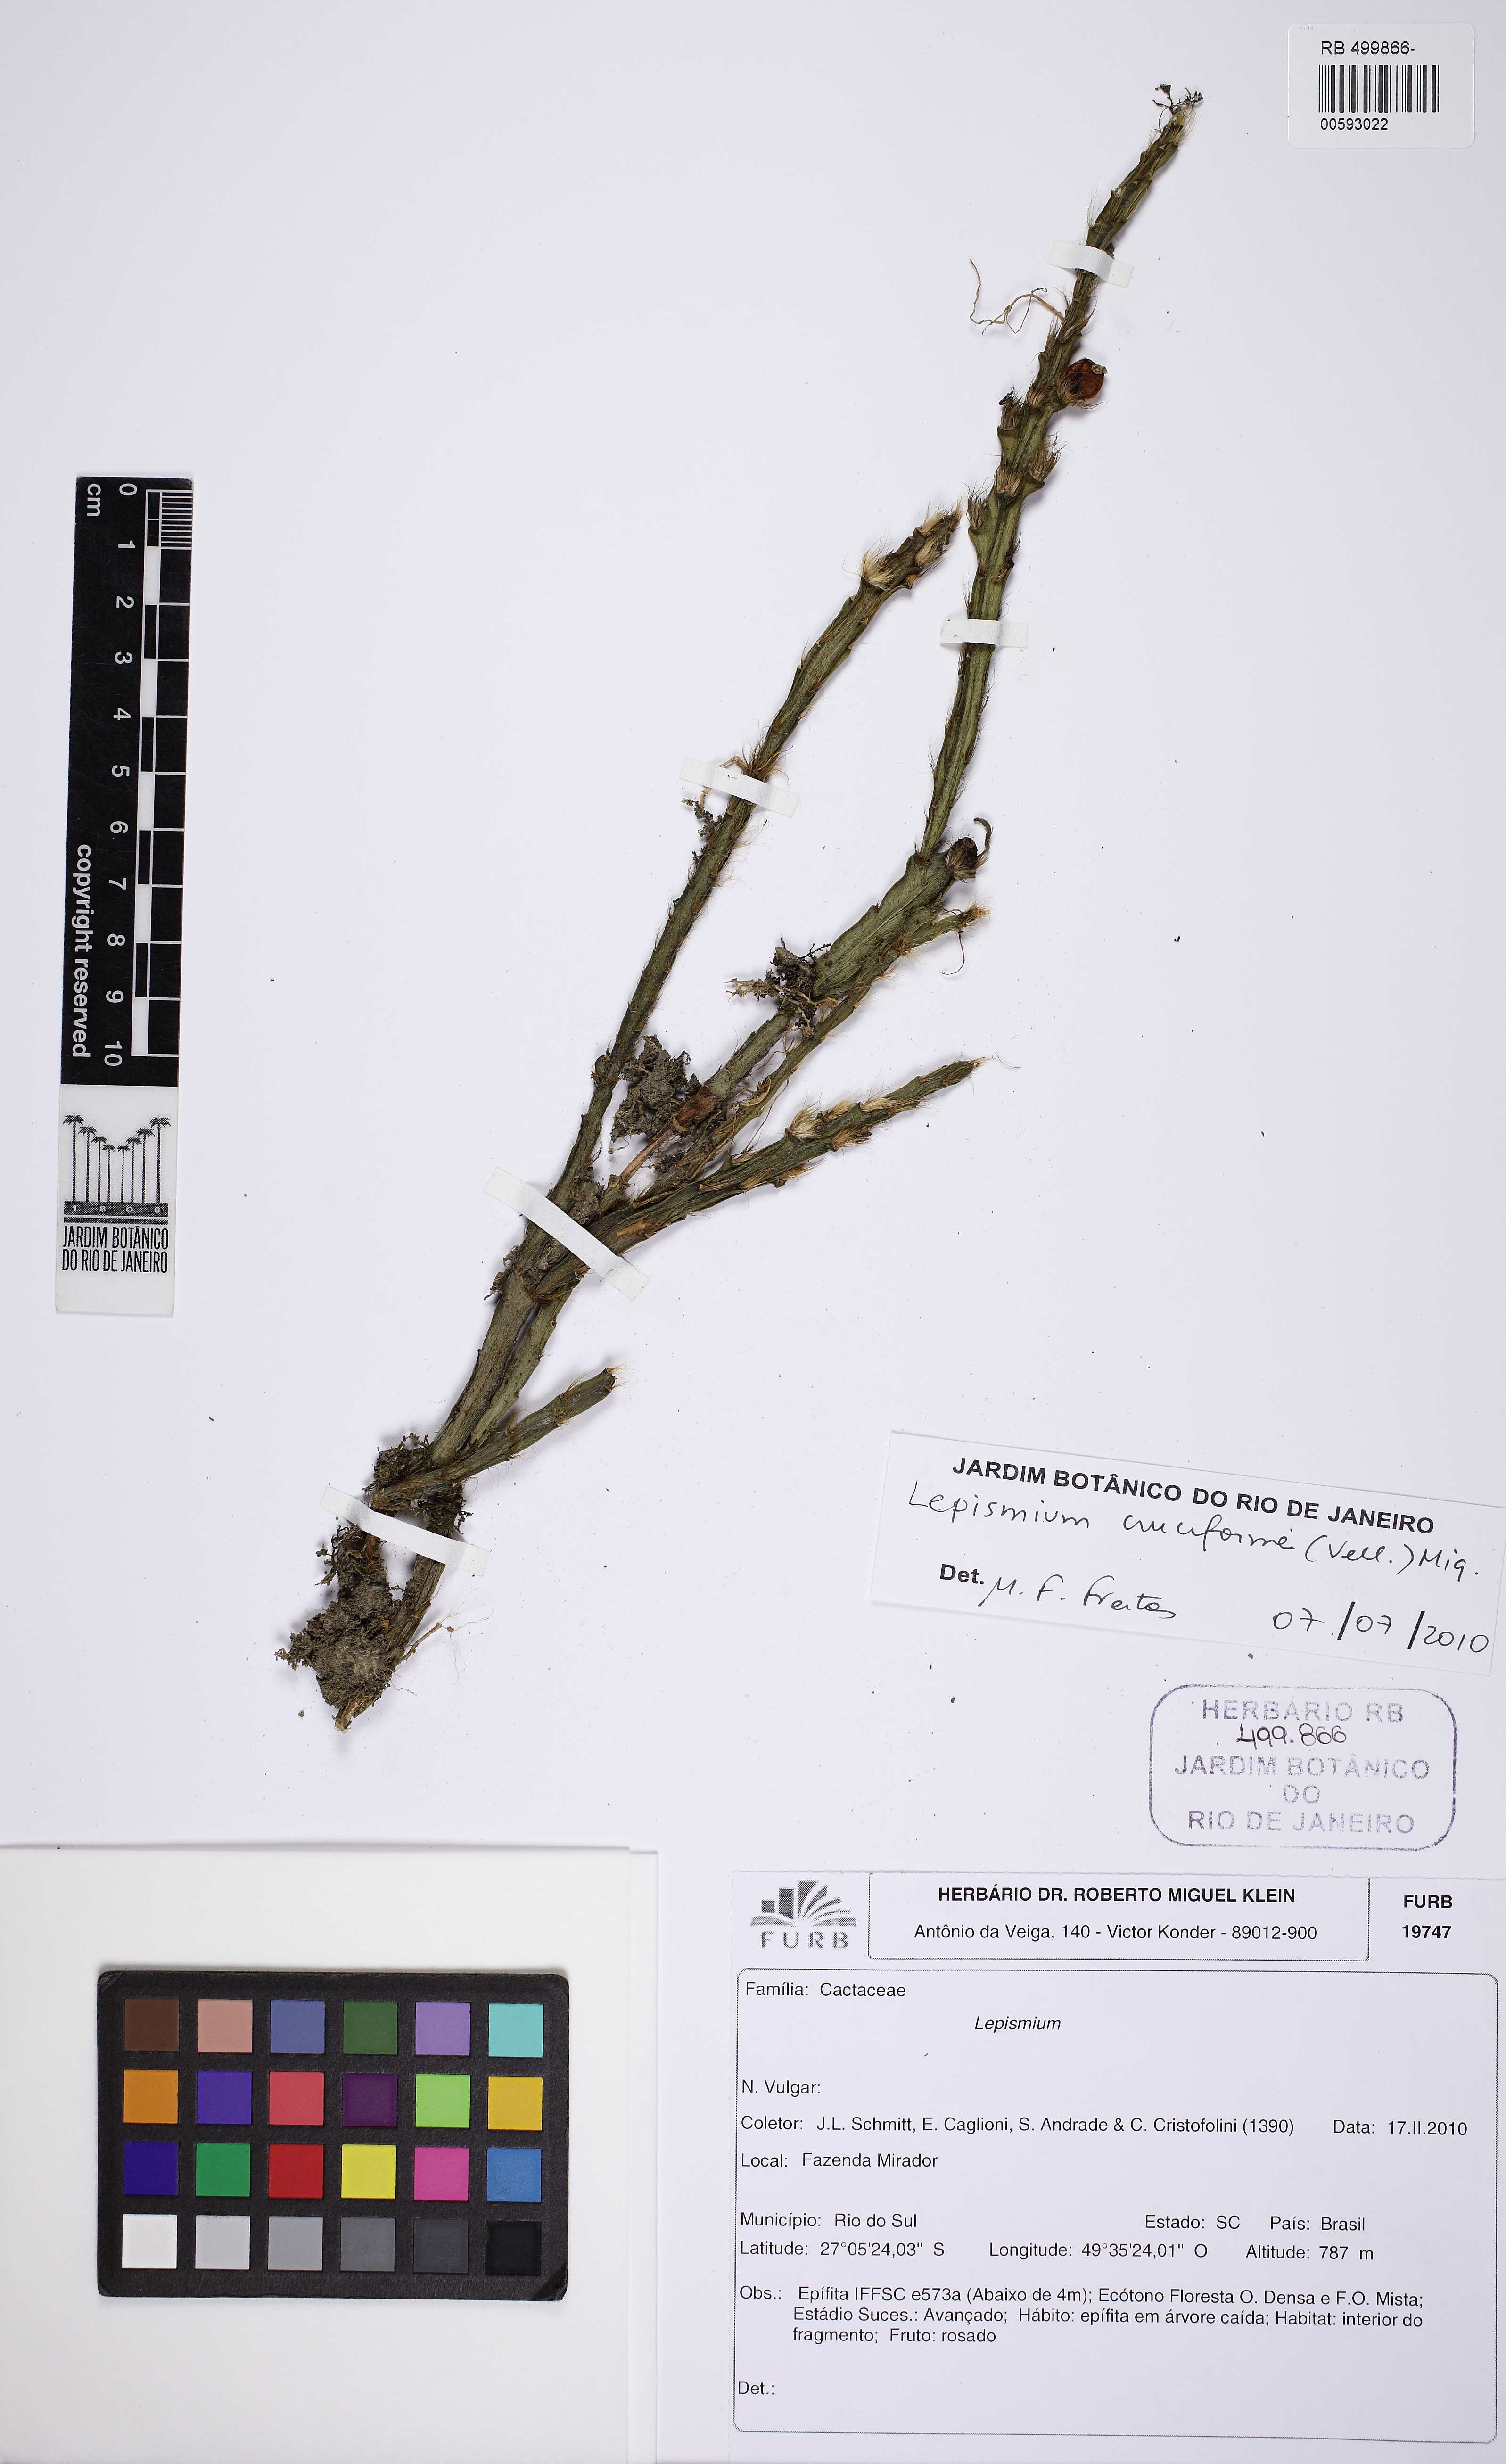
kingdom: Plantae
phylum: Tracheophyta
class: Magnoliopsida
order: Caryophyllales
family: Cactaceae
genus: Lepismium
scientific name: Lepismium cruciforme
